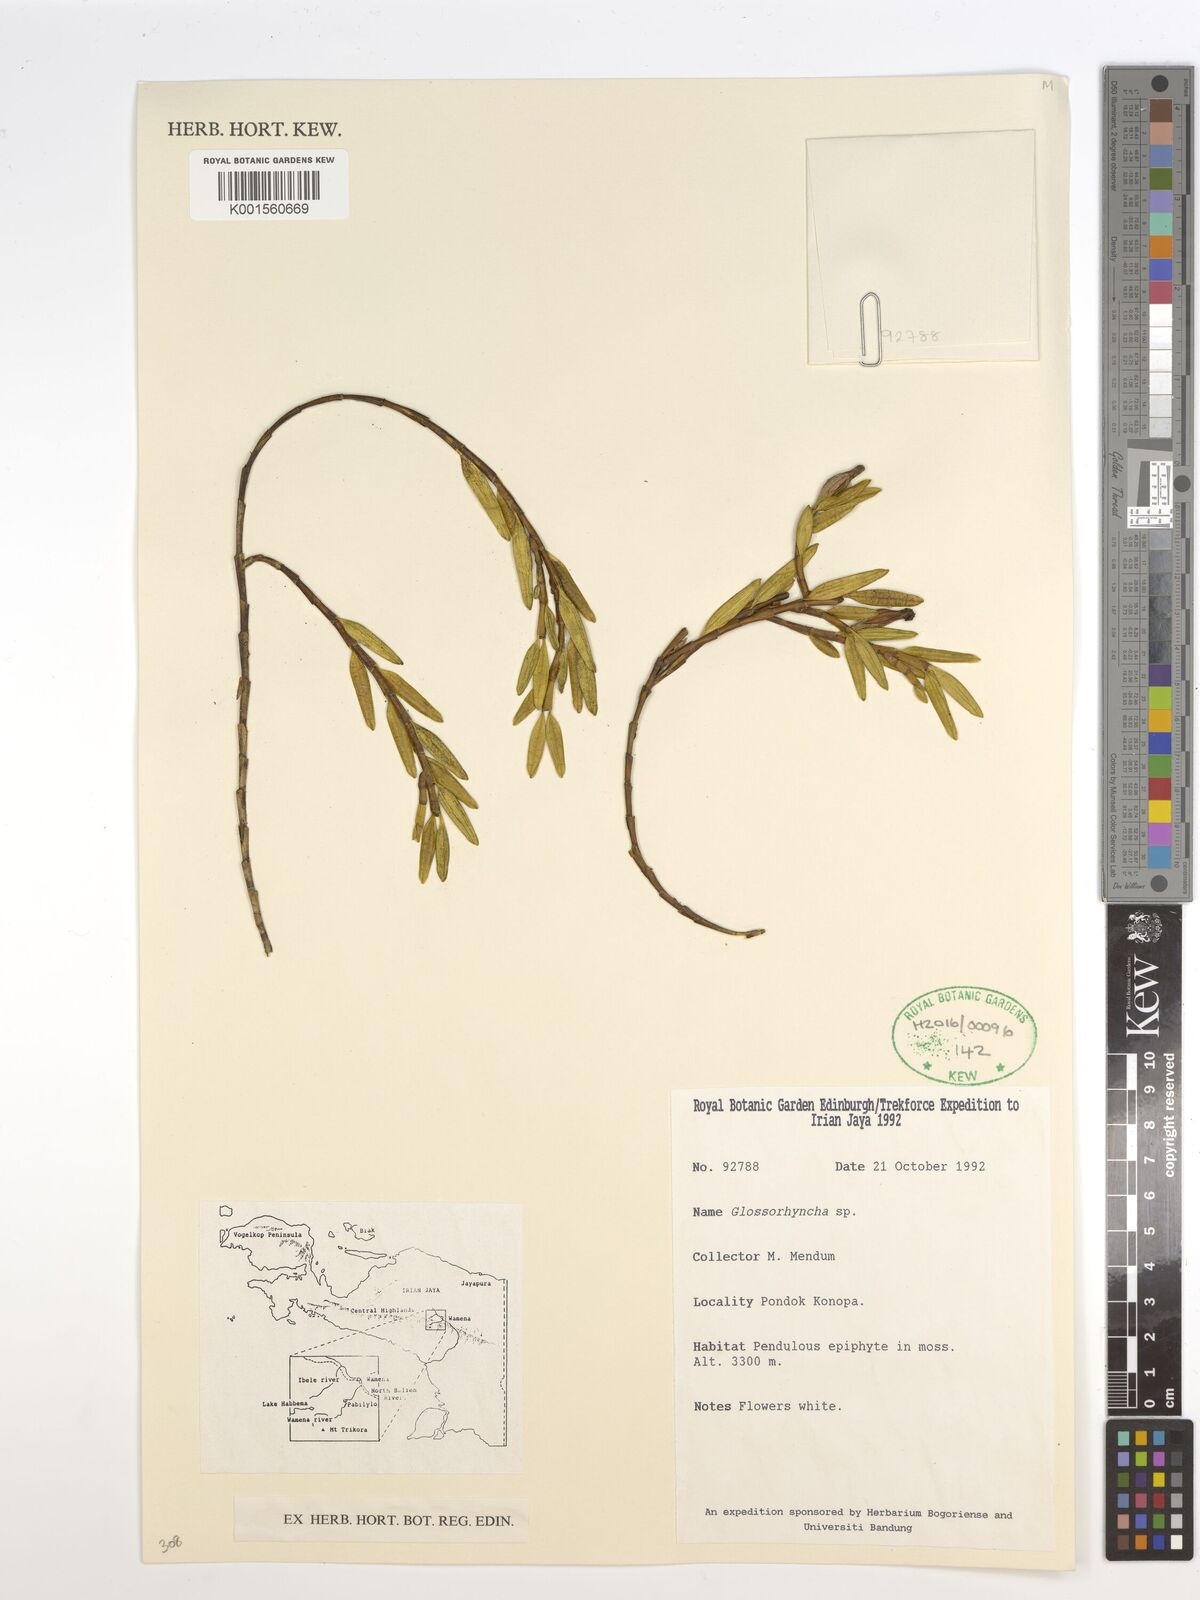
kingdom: Plantae
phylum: Tracheophyta
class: Liliopsida
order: Asparagales
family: Orchidaceae
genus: Glomera
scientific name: Glomera
